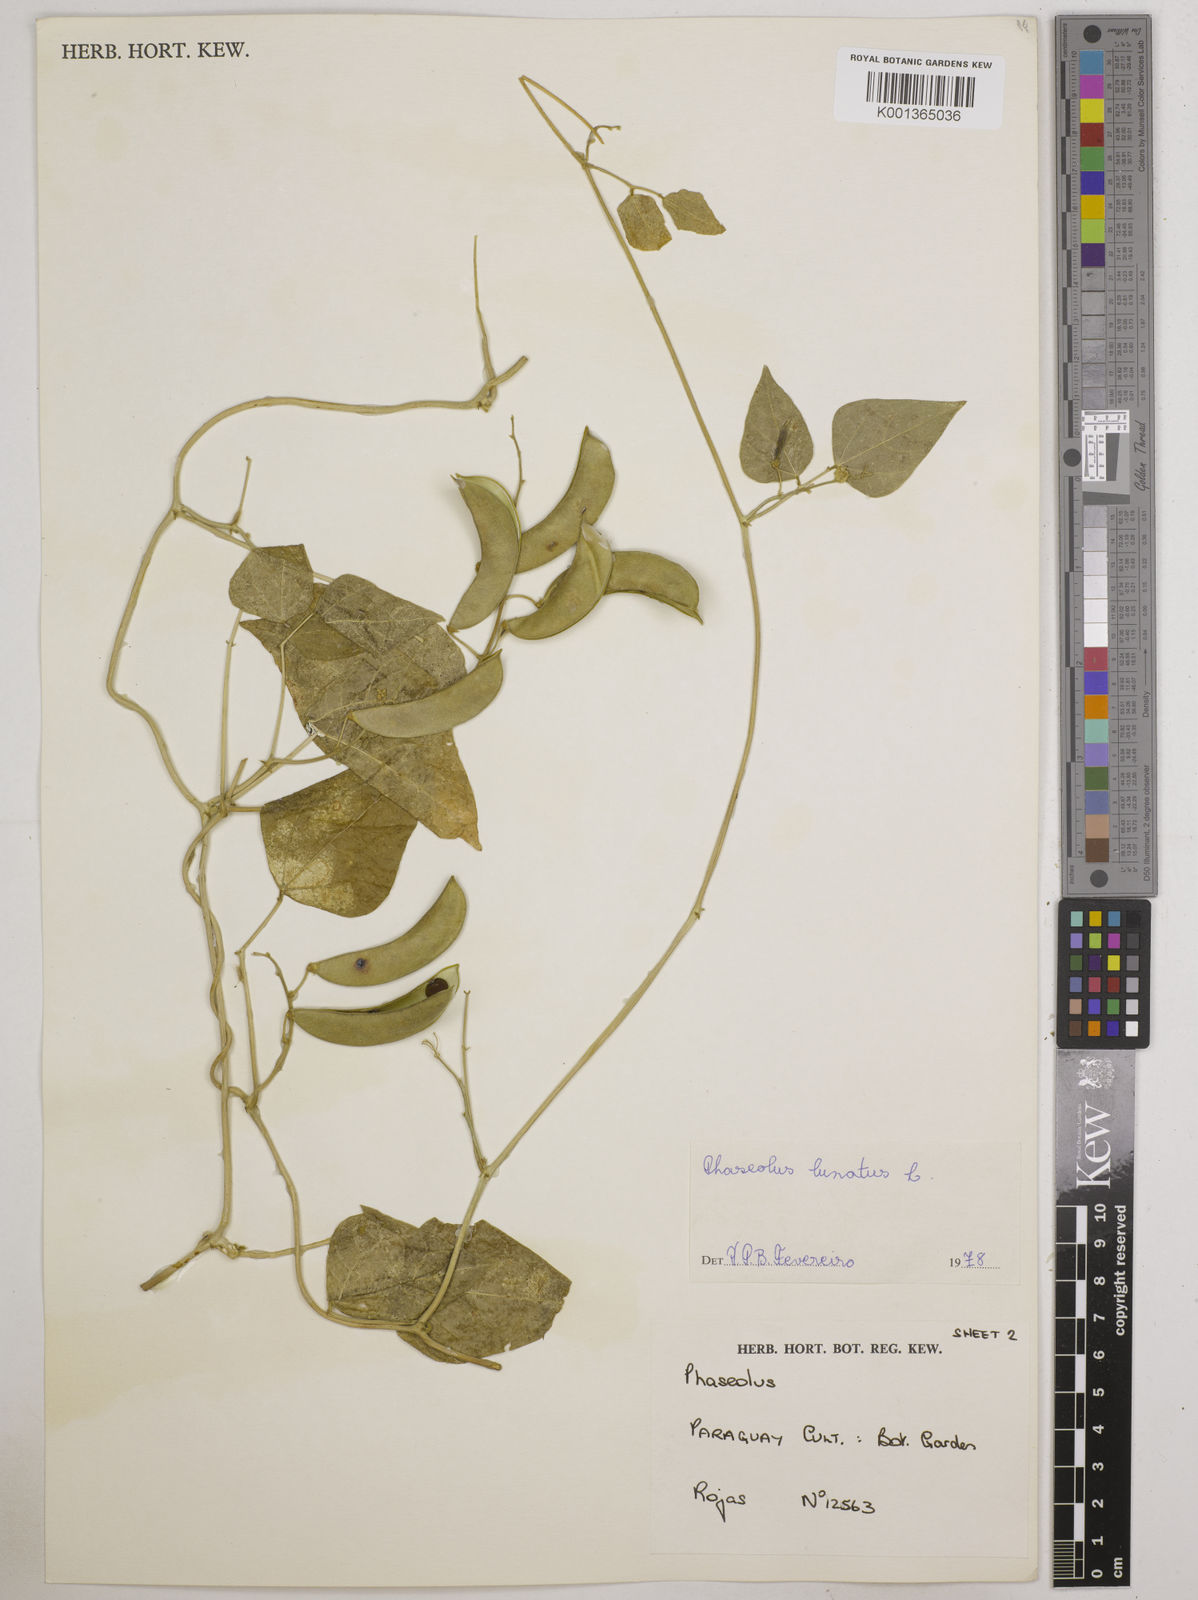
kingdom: Plantae
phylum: Tracheophyta
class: Magnoliopsida
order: Fabales
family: Fabaceae
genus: Phaseolus
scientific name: Phaseolus lunatus
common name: Sieva bean
